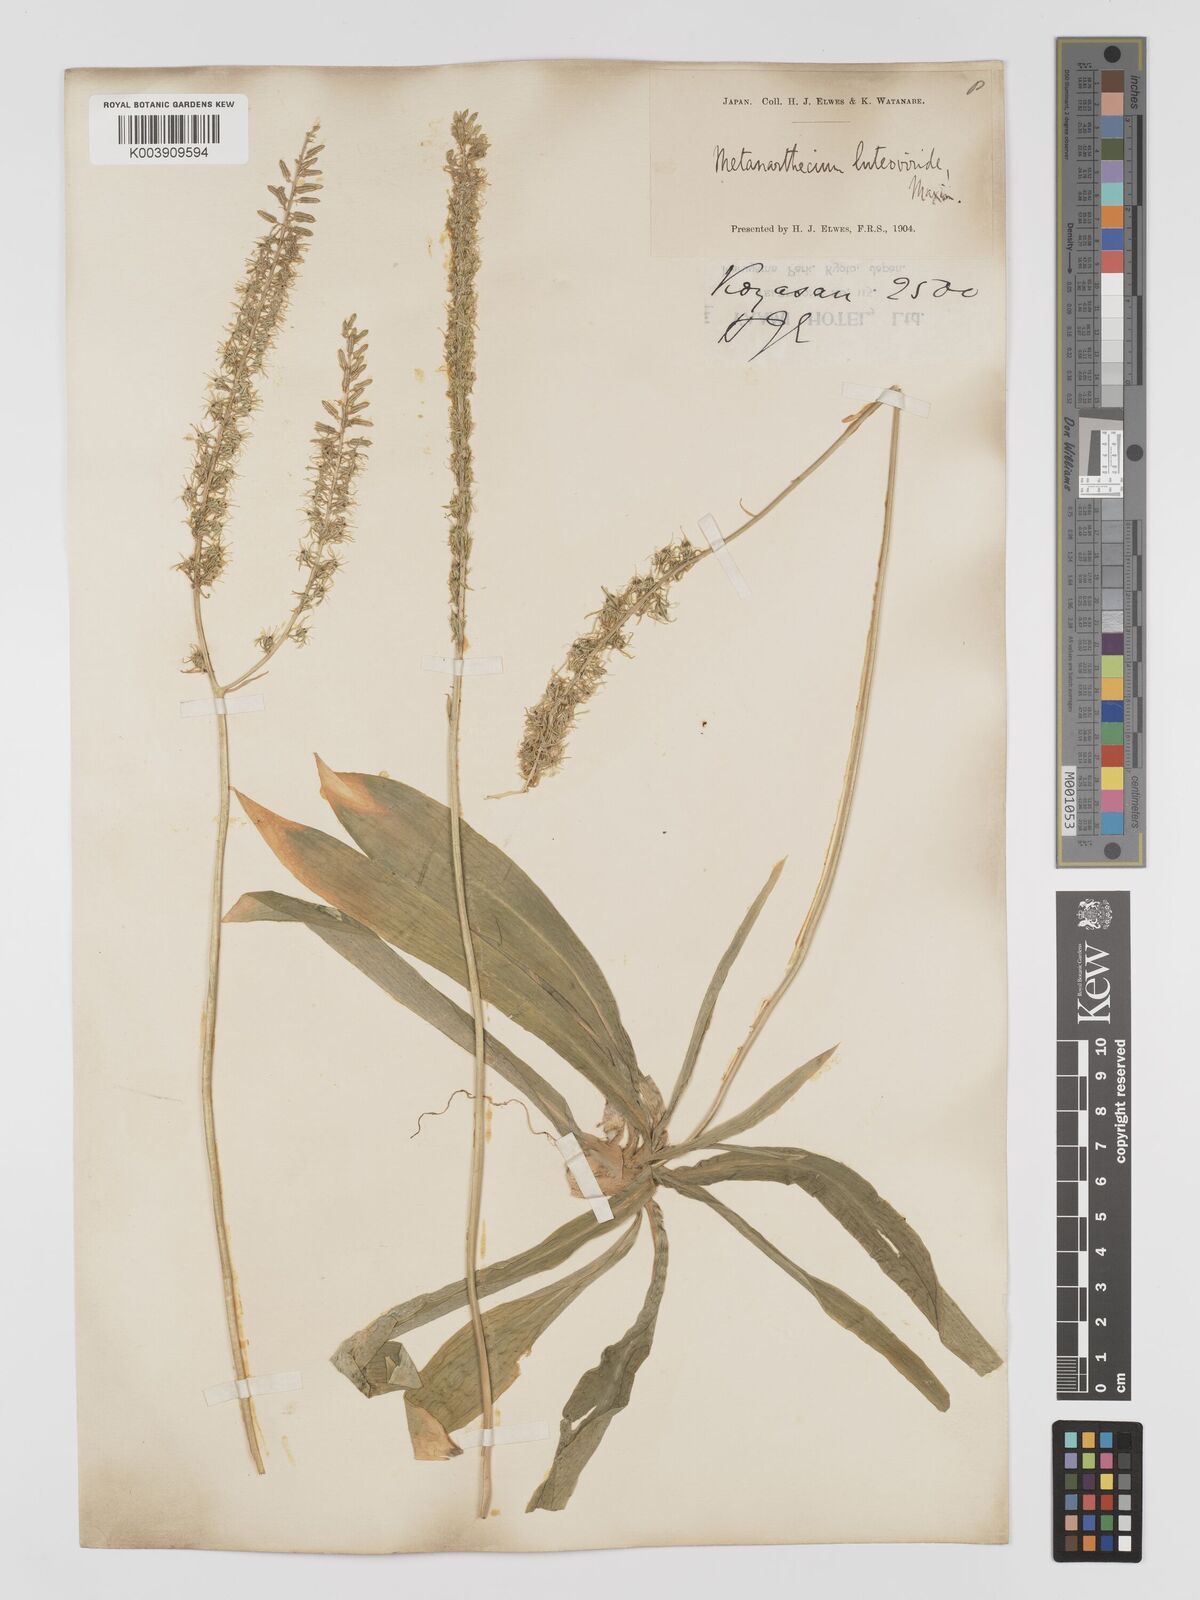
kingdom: Plantae
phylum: Tracheophyta
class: Liliopsida
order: Dioscoreales
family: Nartheciaceae
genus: Metanarthecium
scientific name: Metanarthecium luteoviride
